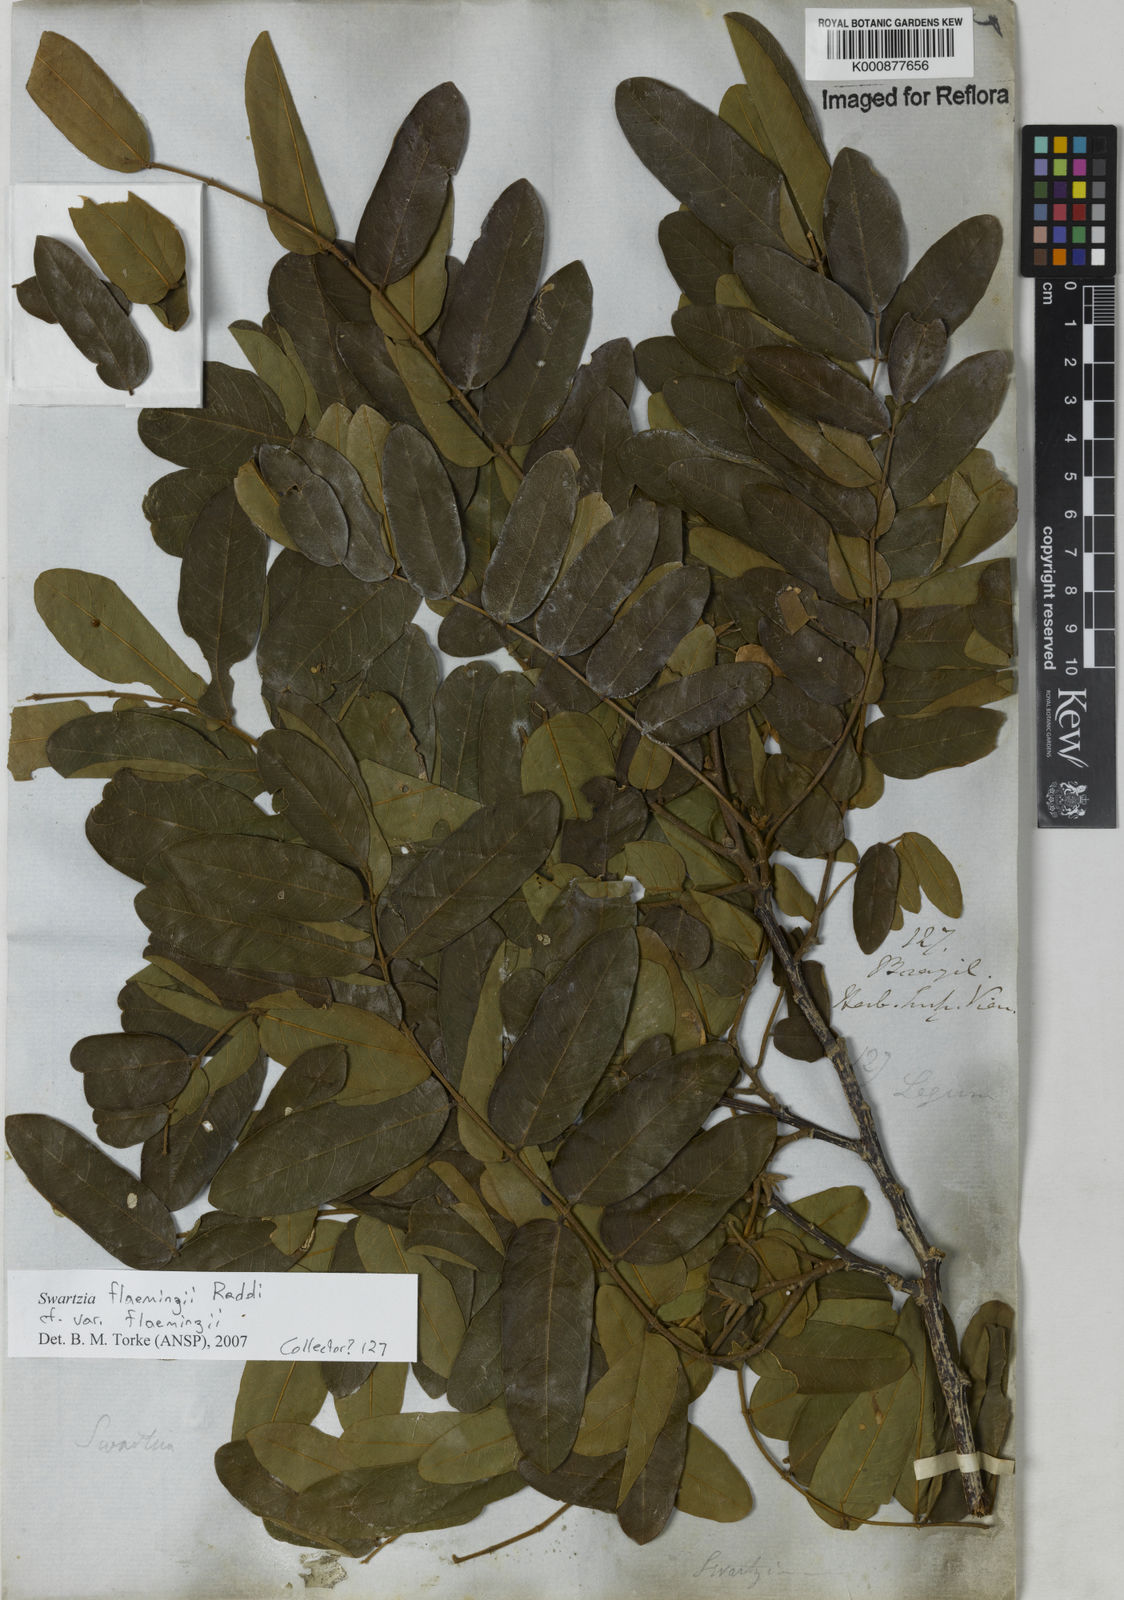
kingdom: Plantae
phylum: Tracheophyta
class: Magnoliopsida
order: Fabales
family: Fabaceae
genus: Swartzia
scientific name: Swartzia flaemingii
